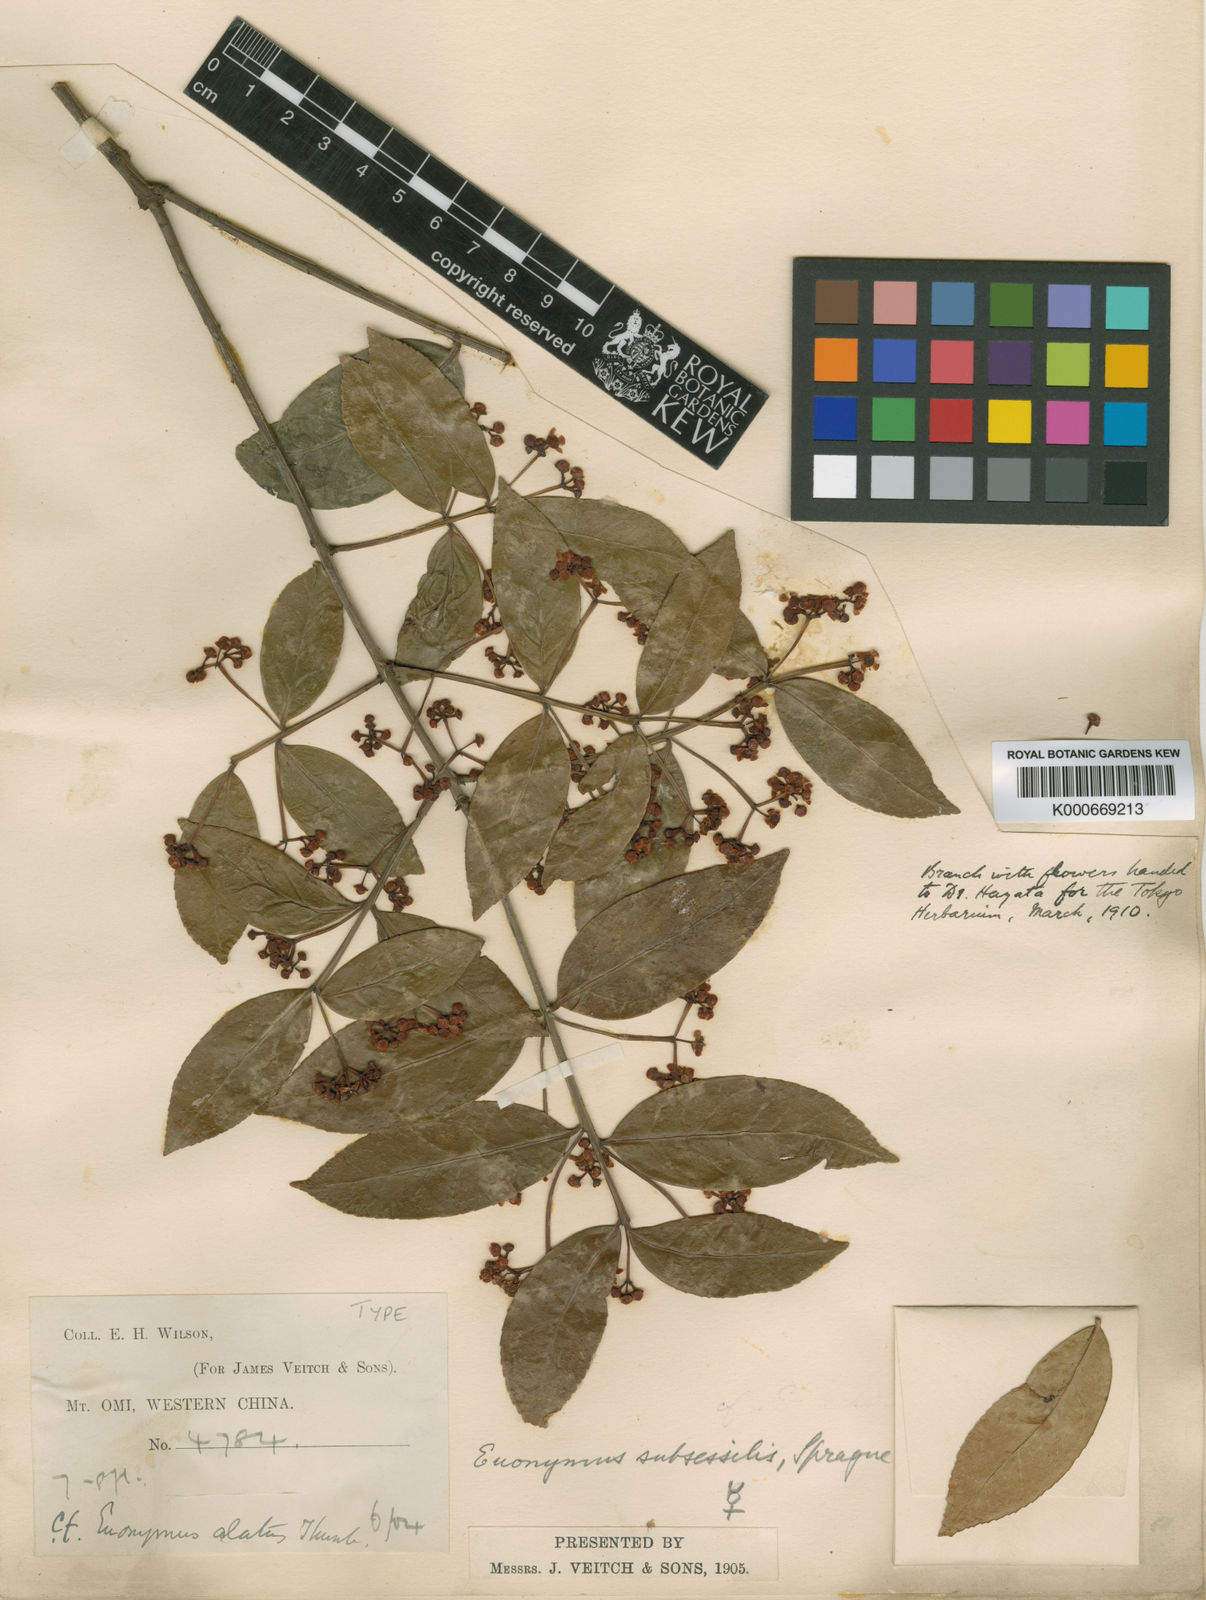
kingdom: Plantae
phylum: Tracheophyta
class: Magnoliopsida
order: Celastrales
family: Celastraceae
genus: Euonymus
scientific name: Euonymus echinatus
